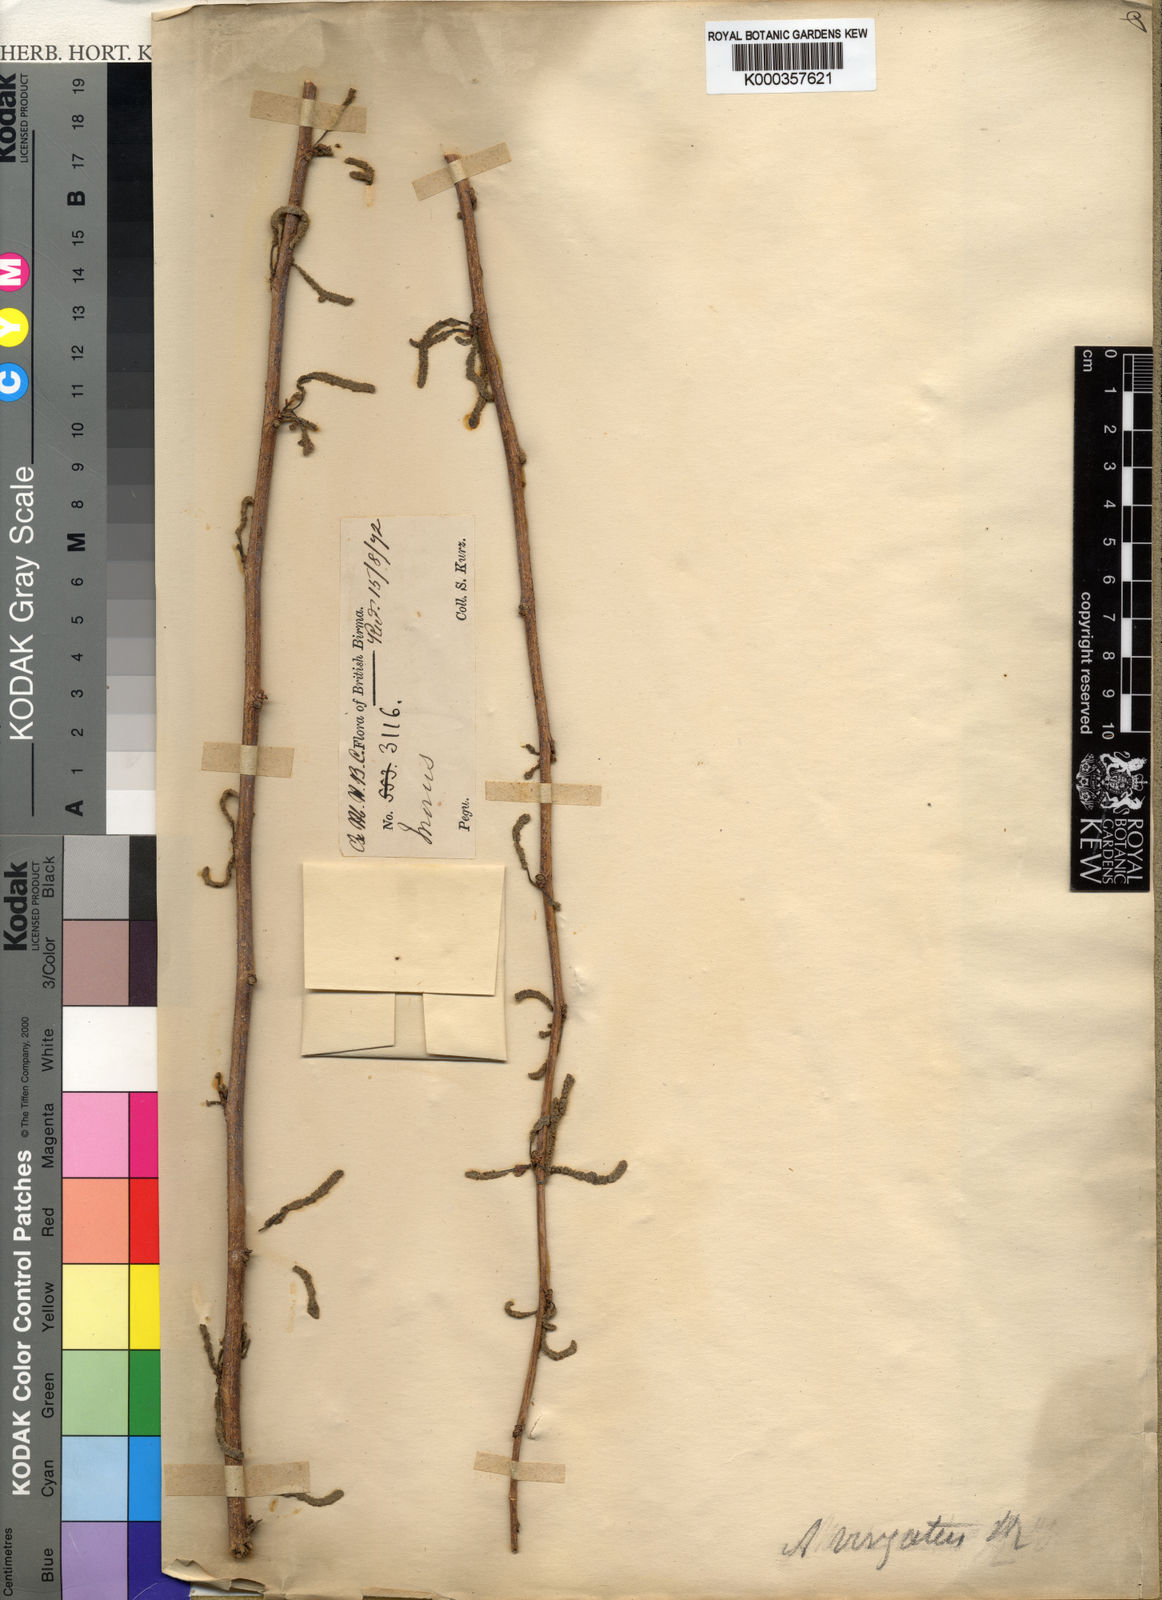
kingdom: Plantae
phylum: Tracheophyta
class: Magnoliopsida
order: Rosales
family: Moraceae
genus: Allaeanthus
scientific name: Allaeanthus kurzii
